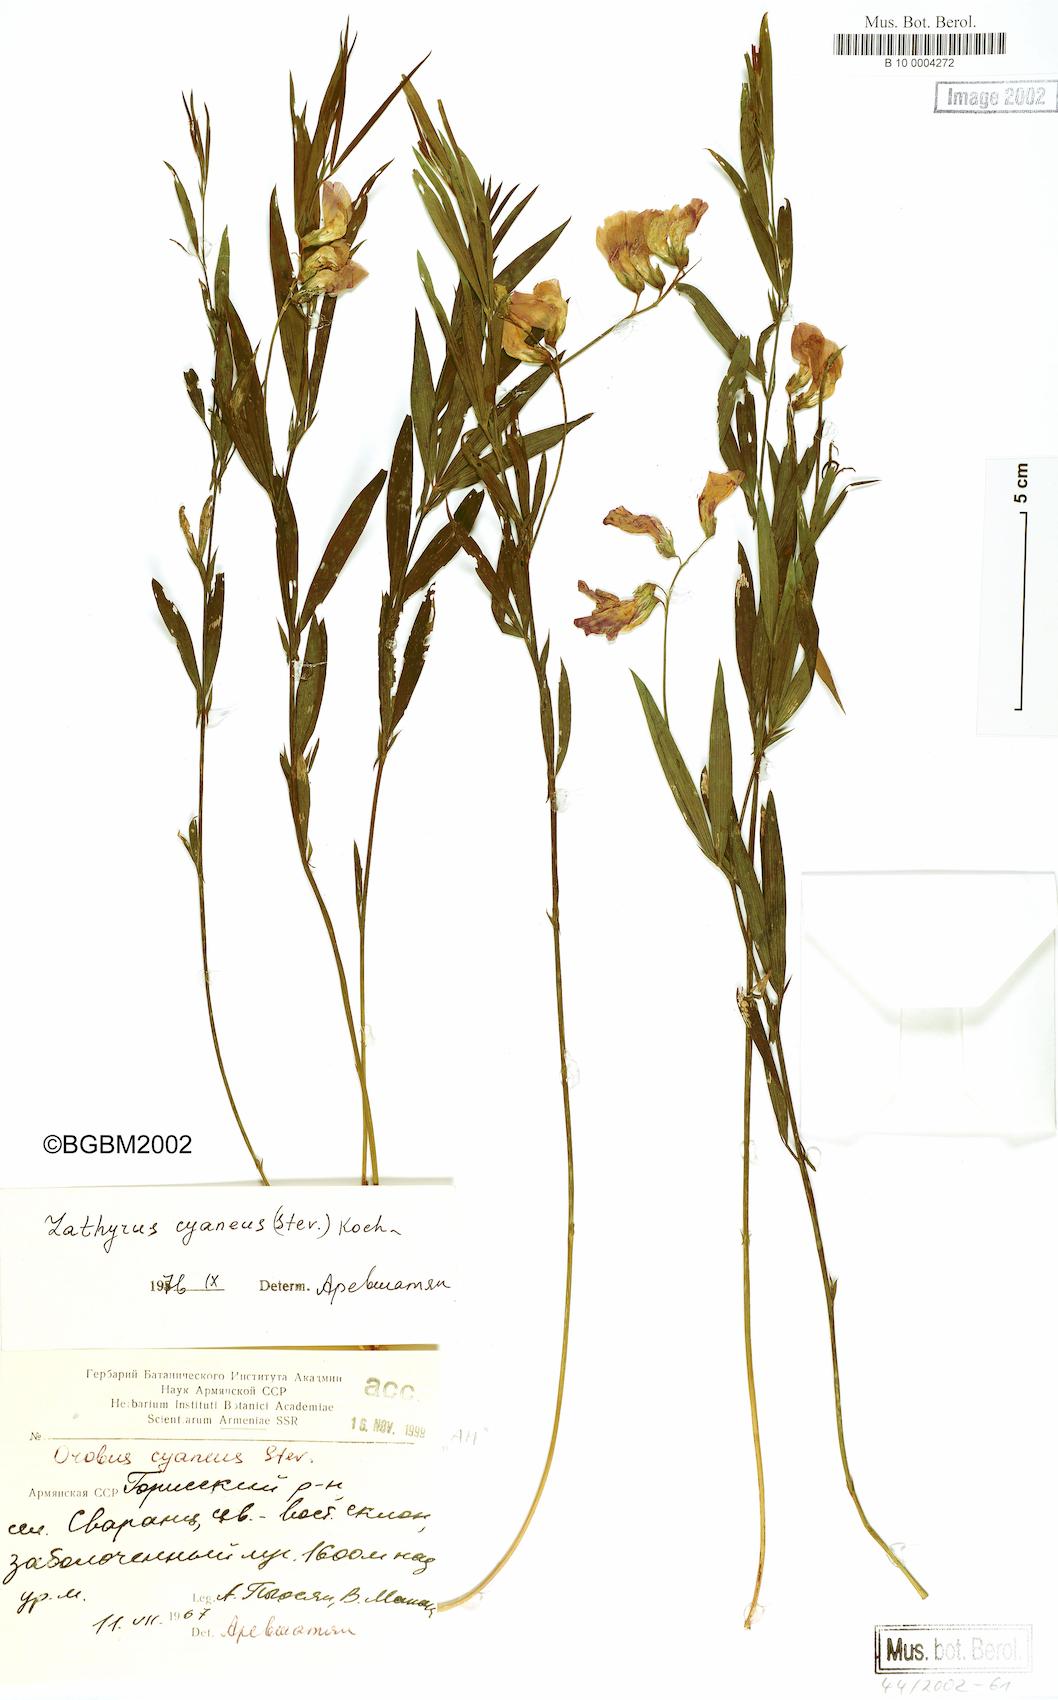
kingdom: Plantae
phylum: Tracheophyta
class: Magnoliopsida
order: Fabales
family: Fabaceae
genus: Lathyrus
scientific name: Lathyrus cyaneus
